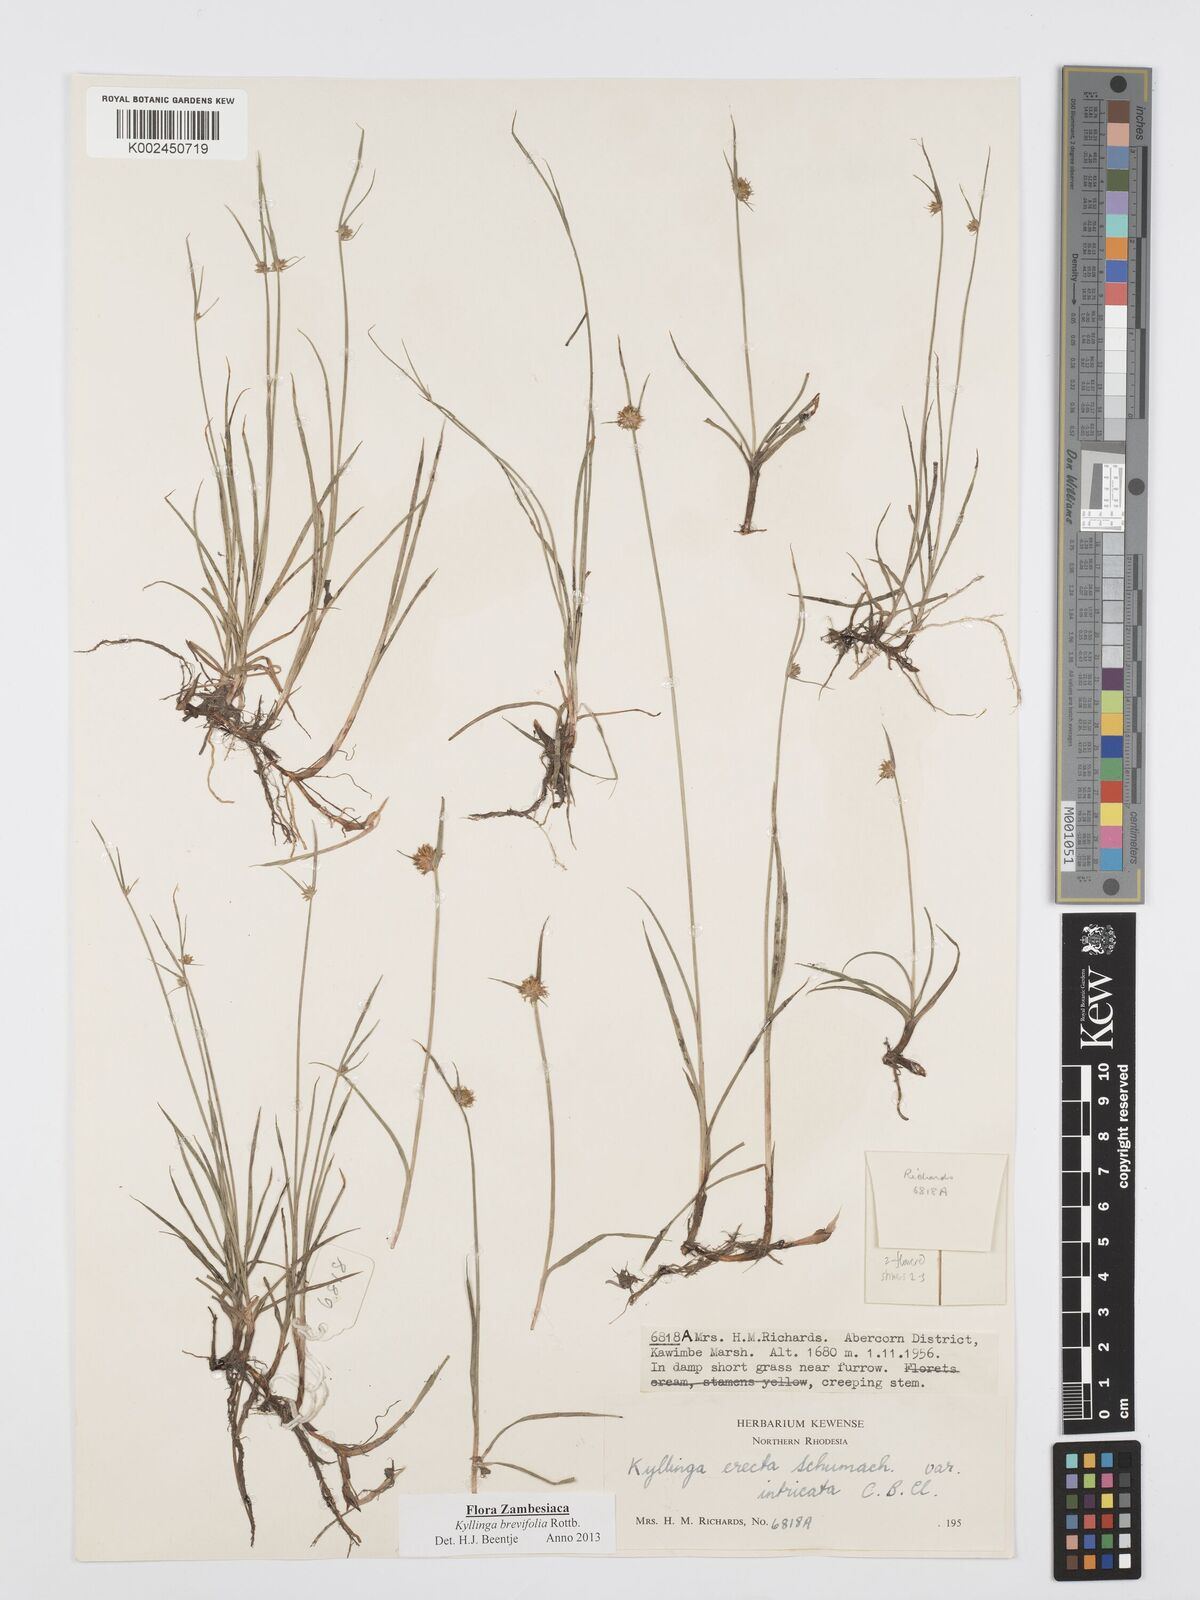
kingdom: Plantae
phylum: Tracheophyta
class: Liliopsida
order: Poales
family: Cyperaceae
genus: Cyperus
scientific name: Cyperus brevifolius
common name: Globe kyllinga
